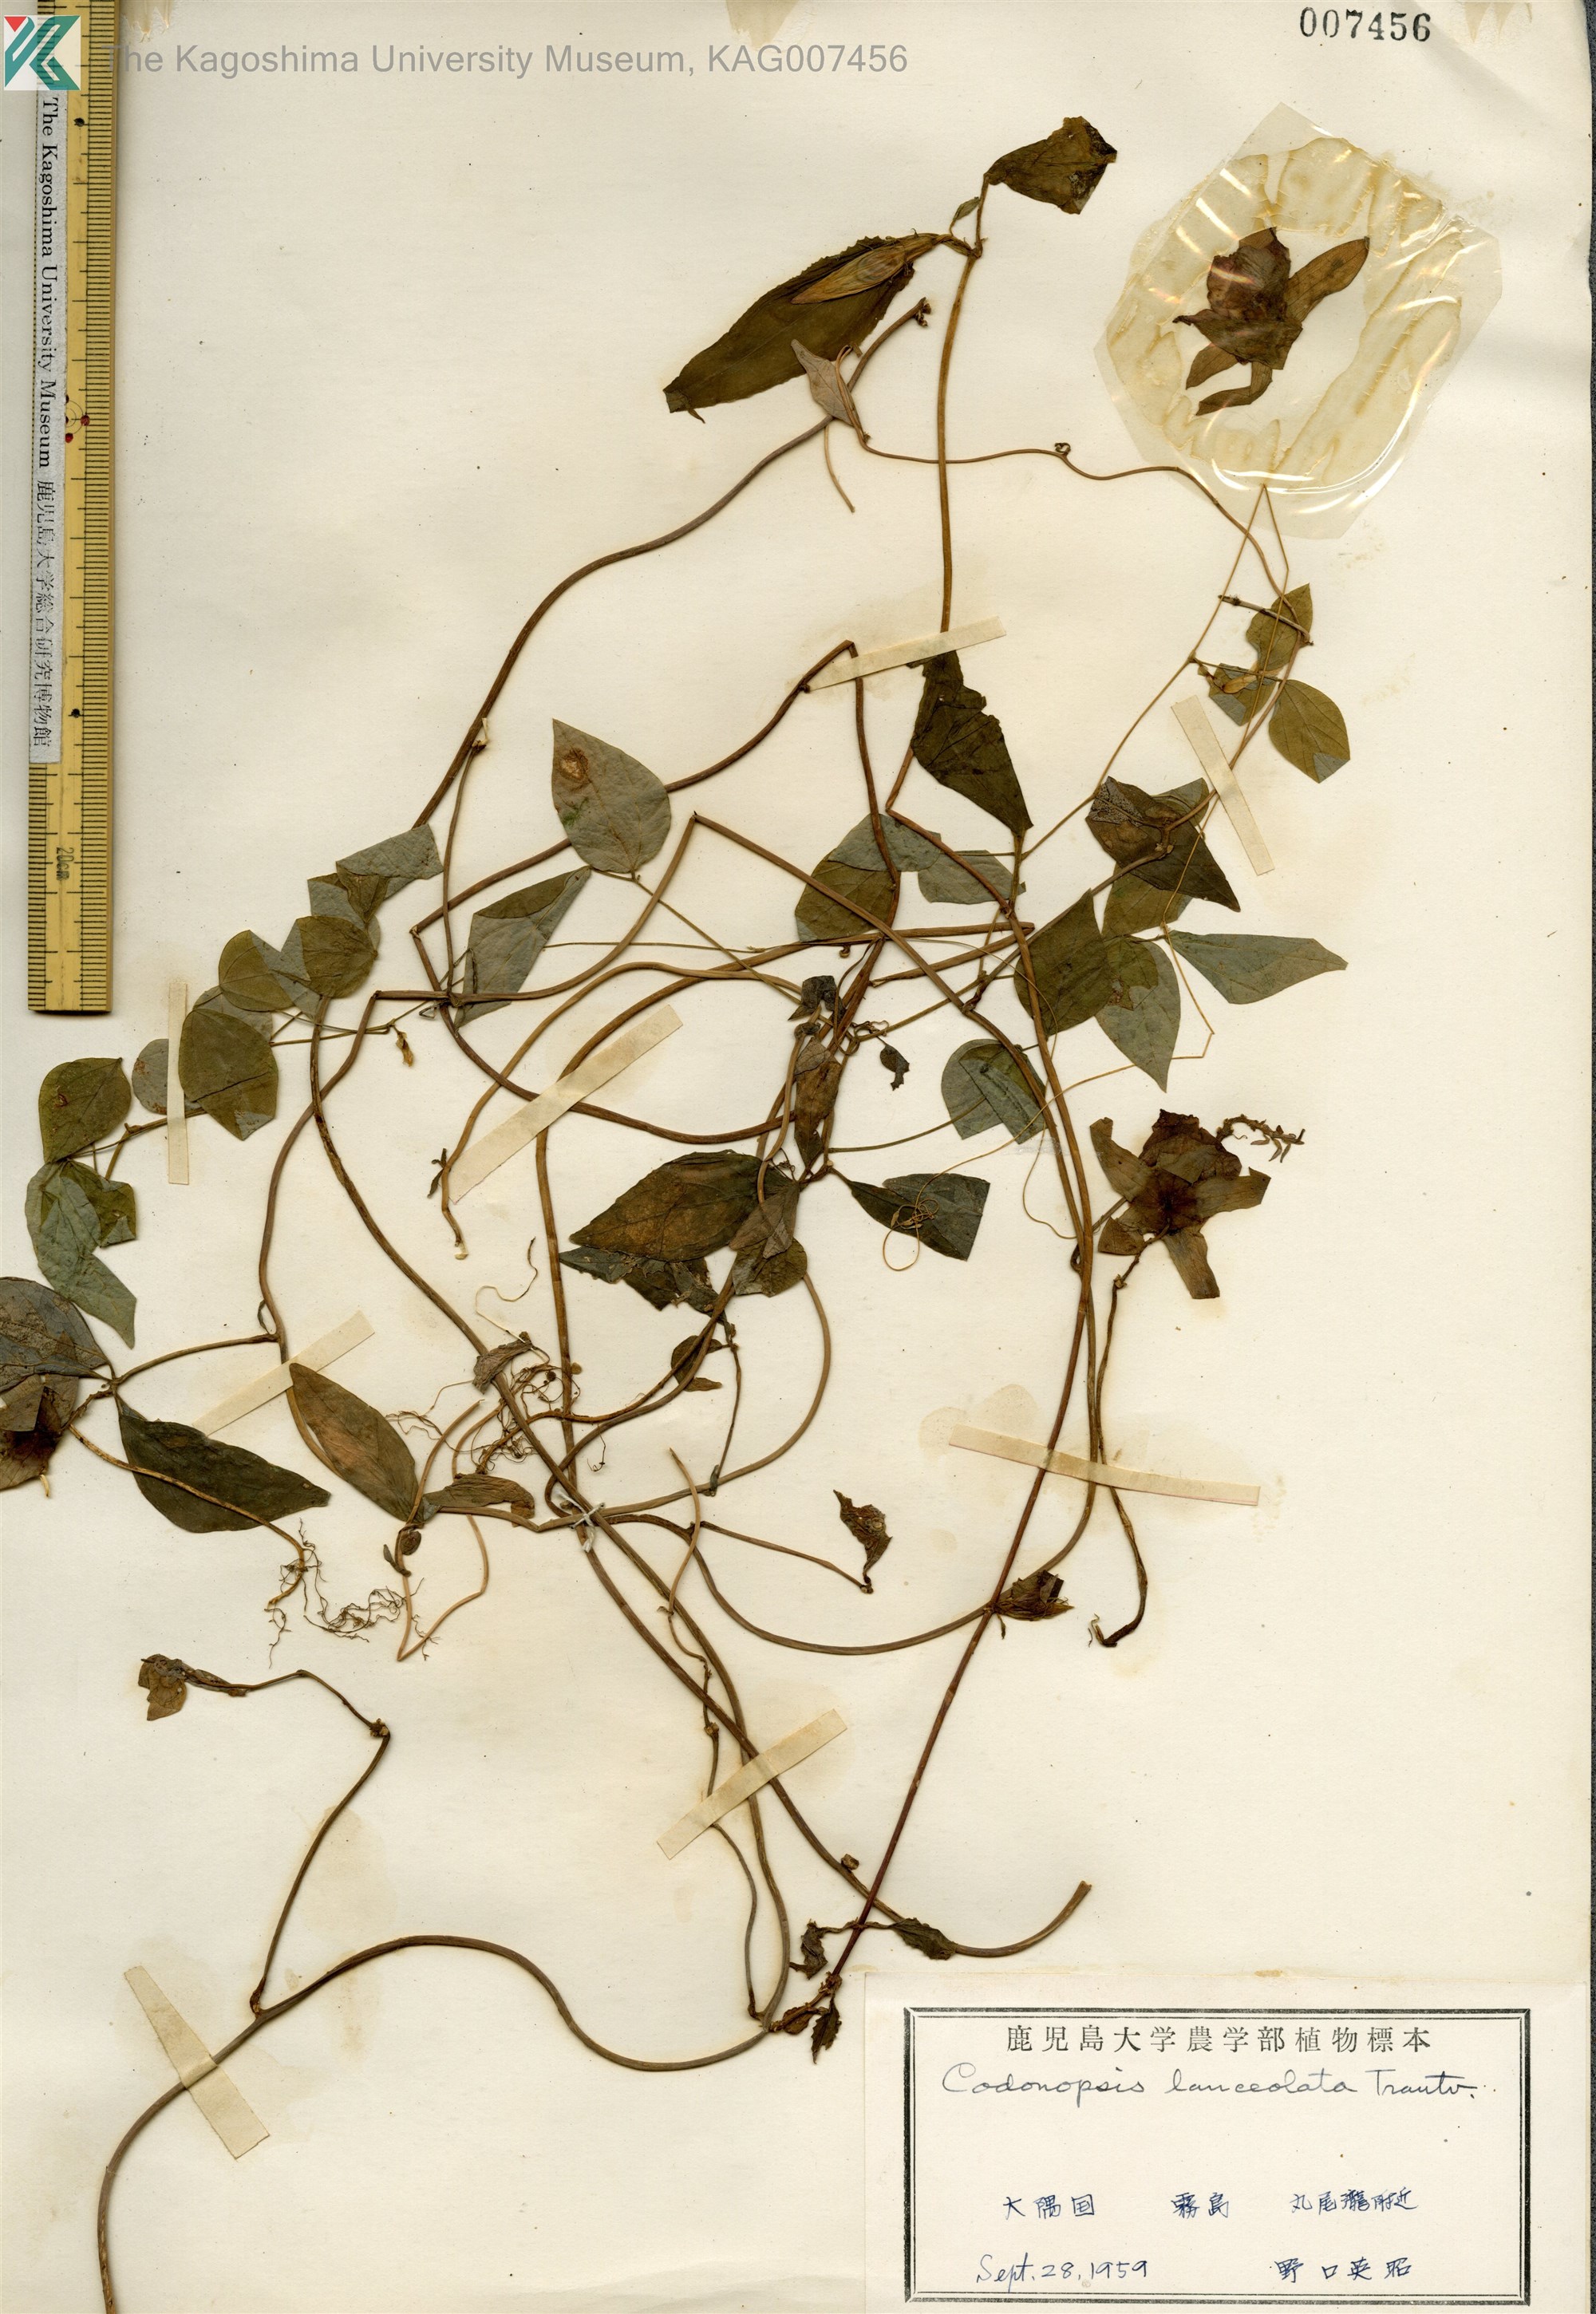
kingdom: Plantae
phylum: Tracheophyta
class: Magnoliopsida
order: Asterales
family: Campanulaceae
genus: Codonopsis
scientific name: Codonopsis lanceolata
